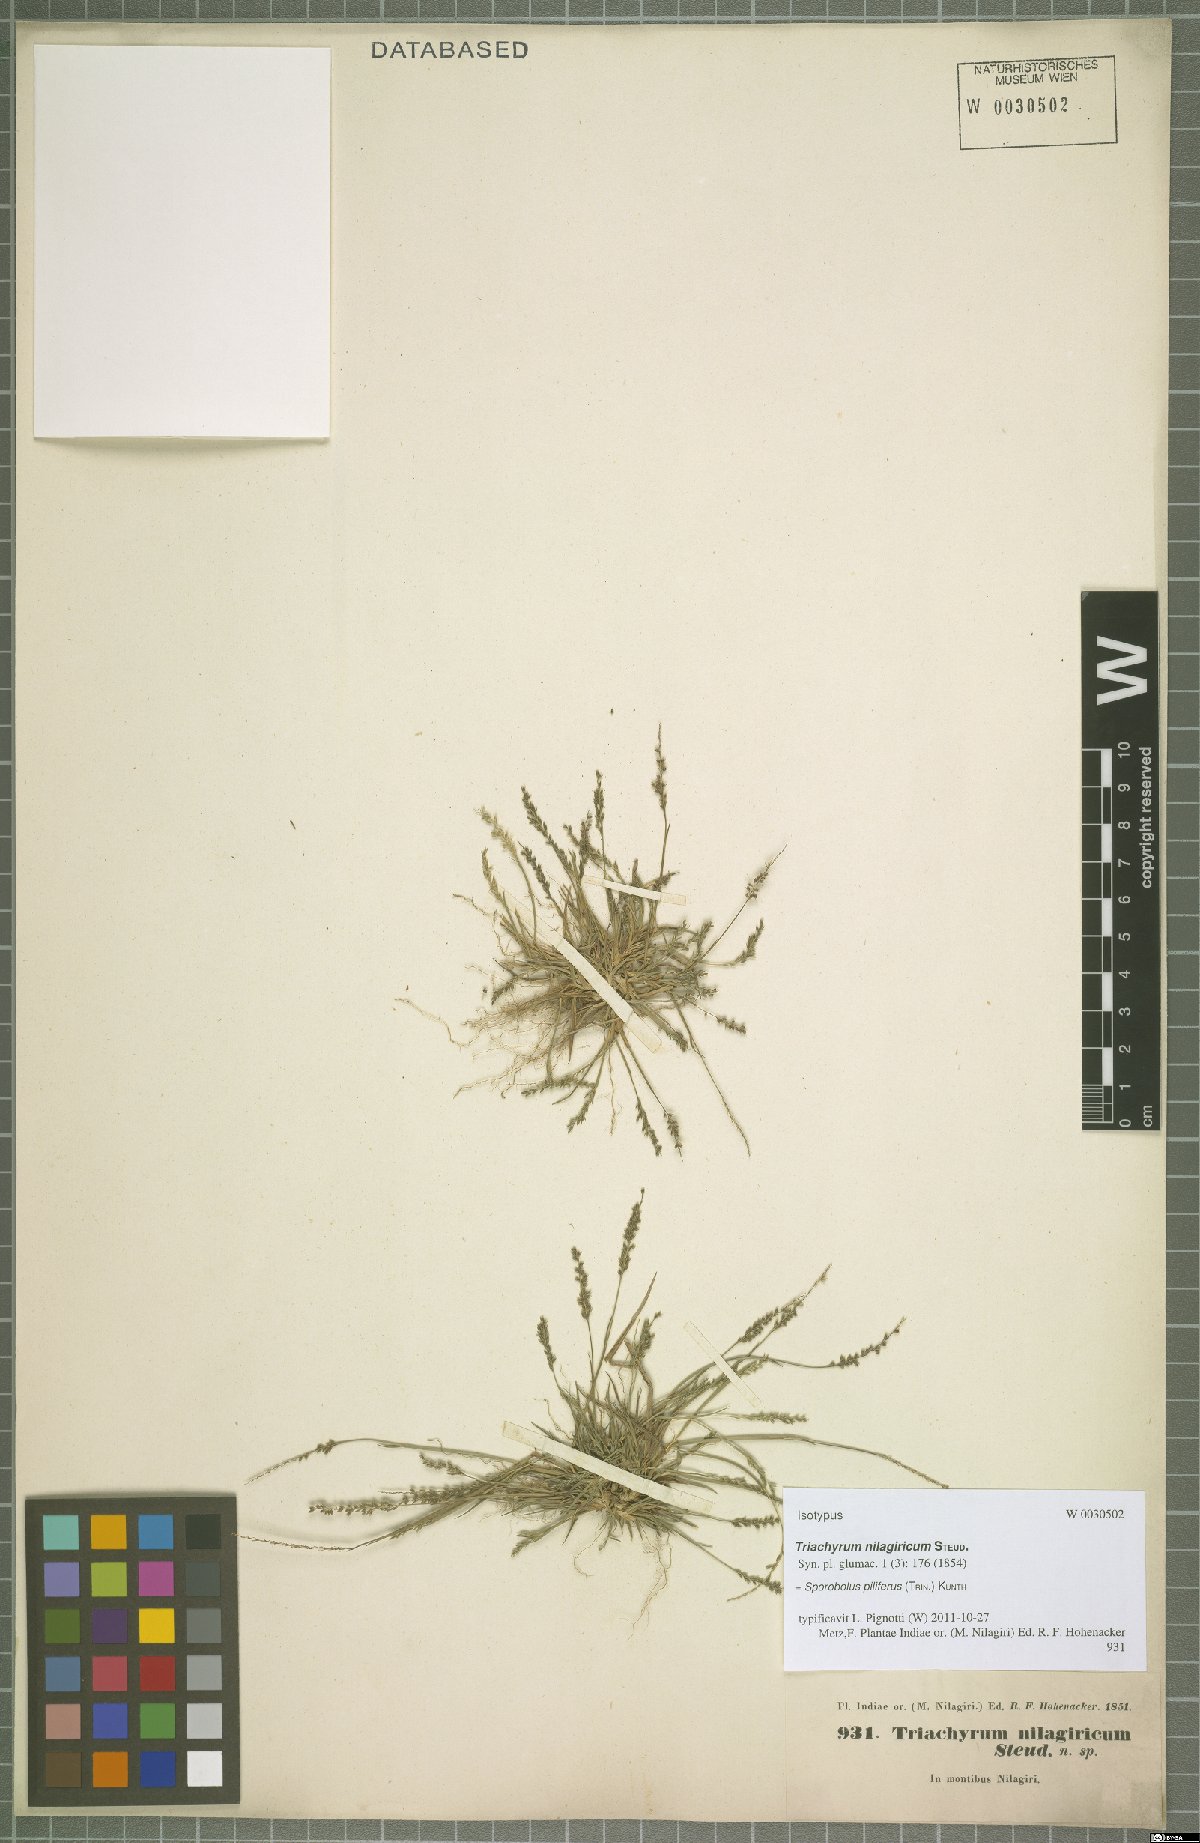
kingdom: Plantae
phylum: Tracheophyta
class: Liliopsida
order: Poales
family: Poaceae
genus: Sporobolus
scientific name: Sporobolus pilifer
